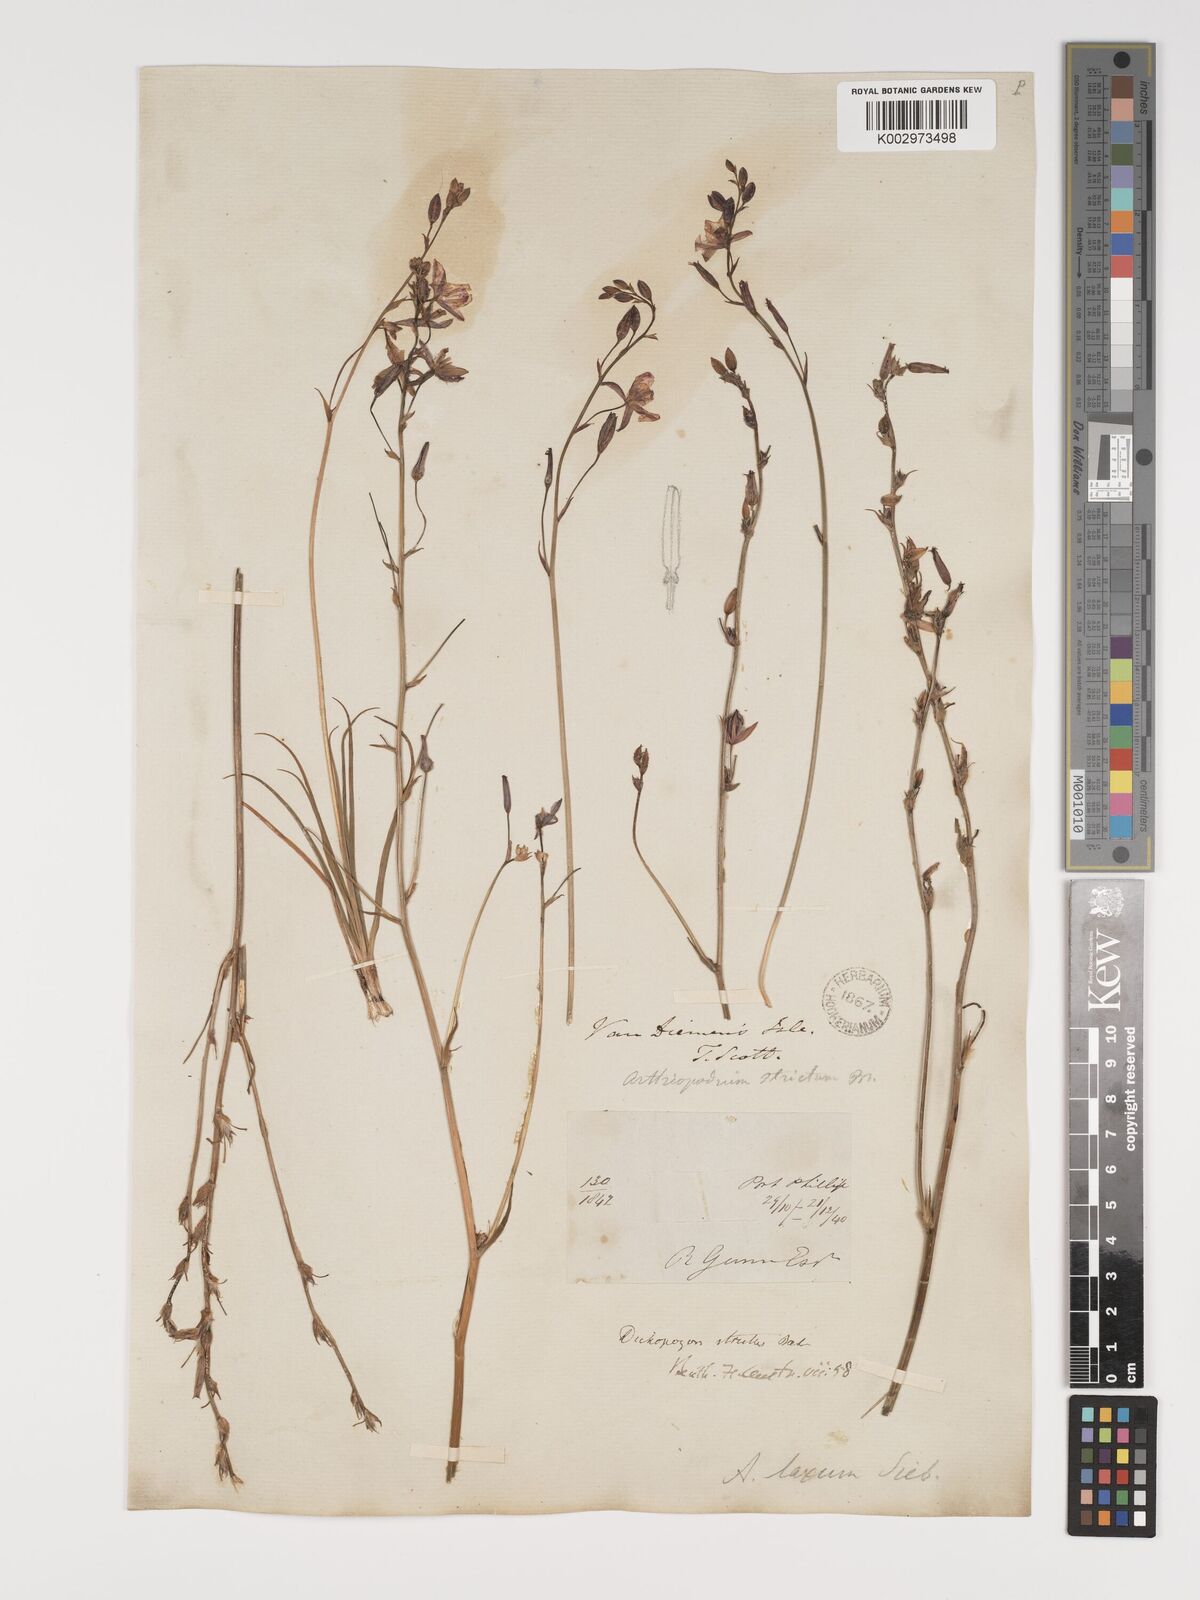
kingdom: Plantae
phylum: Tracheophyta
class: Liliopsida
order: Asparagales
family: Asparagaceae
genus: Arthropodium
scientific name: Arthropodium strictum
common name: Chocolate-lily
